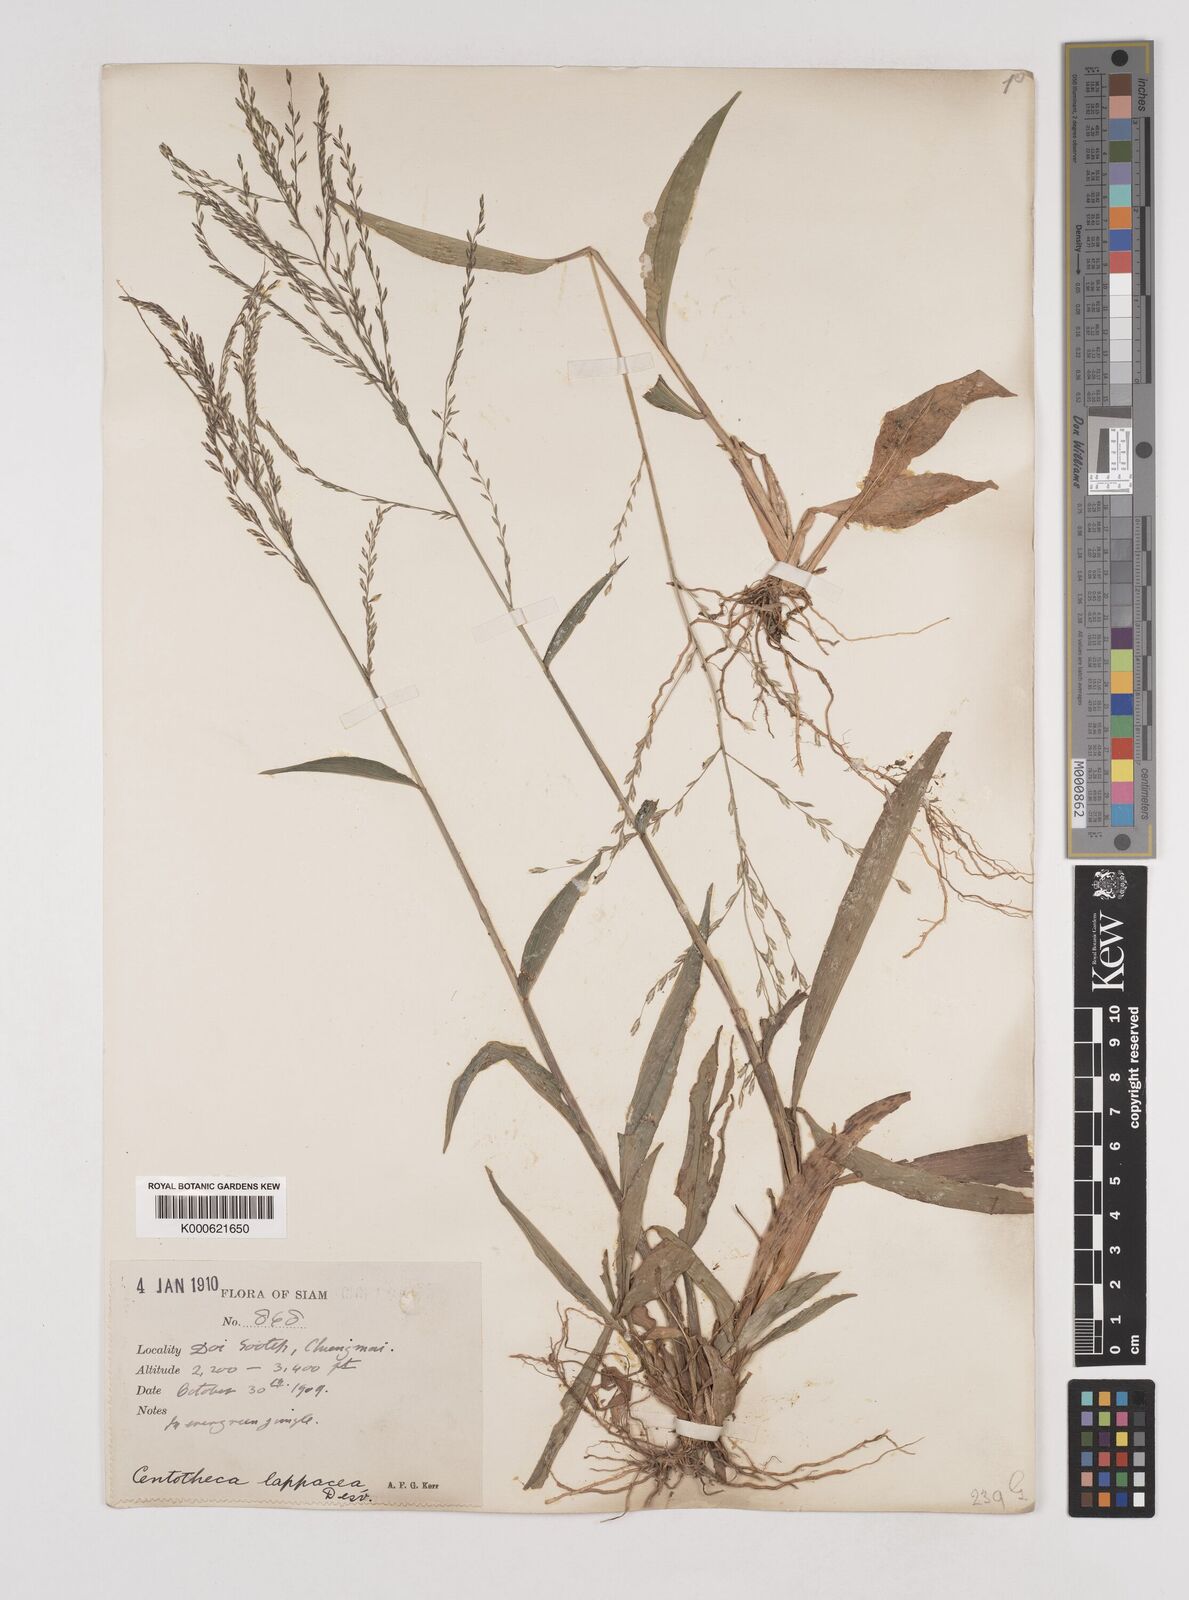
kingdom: Plantae
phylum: Tracheophyta
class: Liliopsida
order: Poales
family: Poaceae
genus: Centotheca
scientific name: Centotheca lappacea
